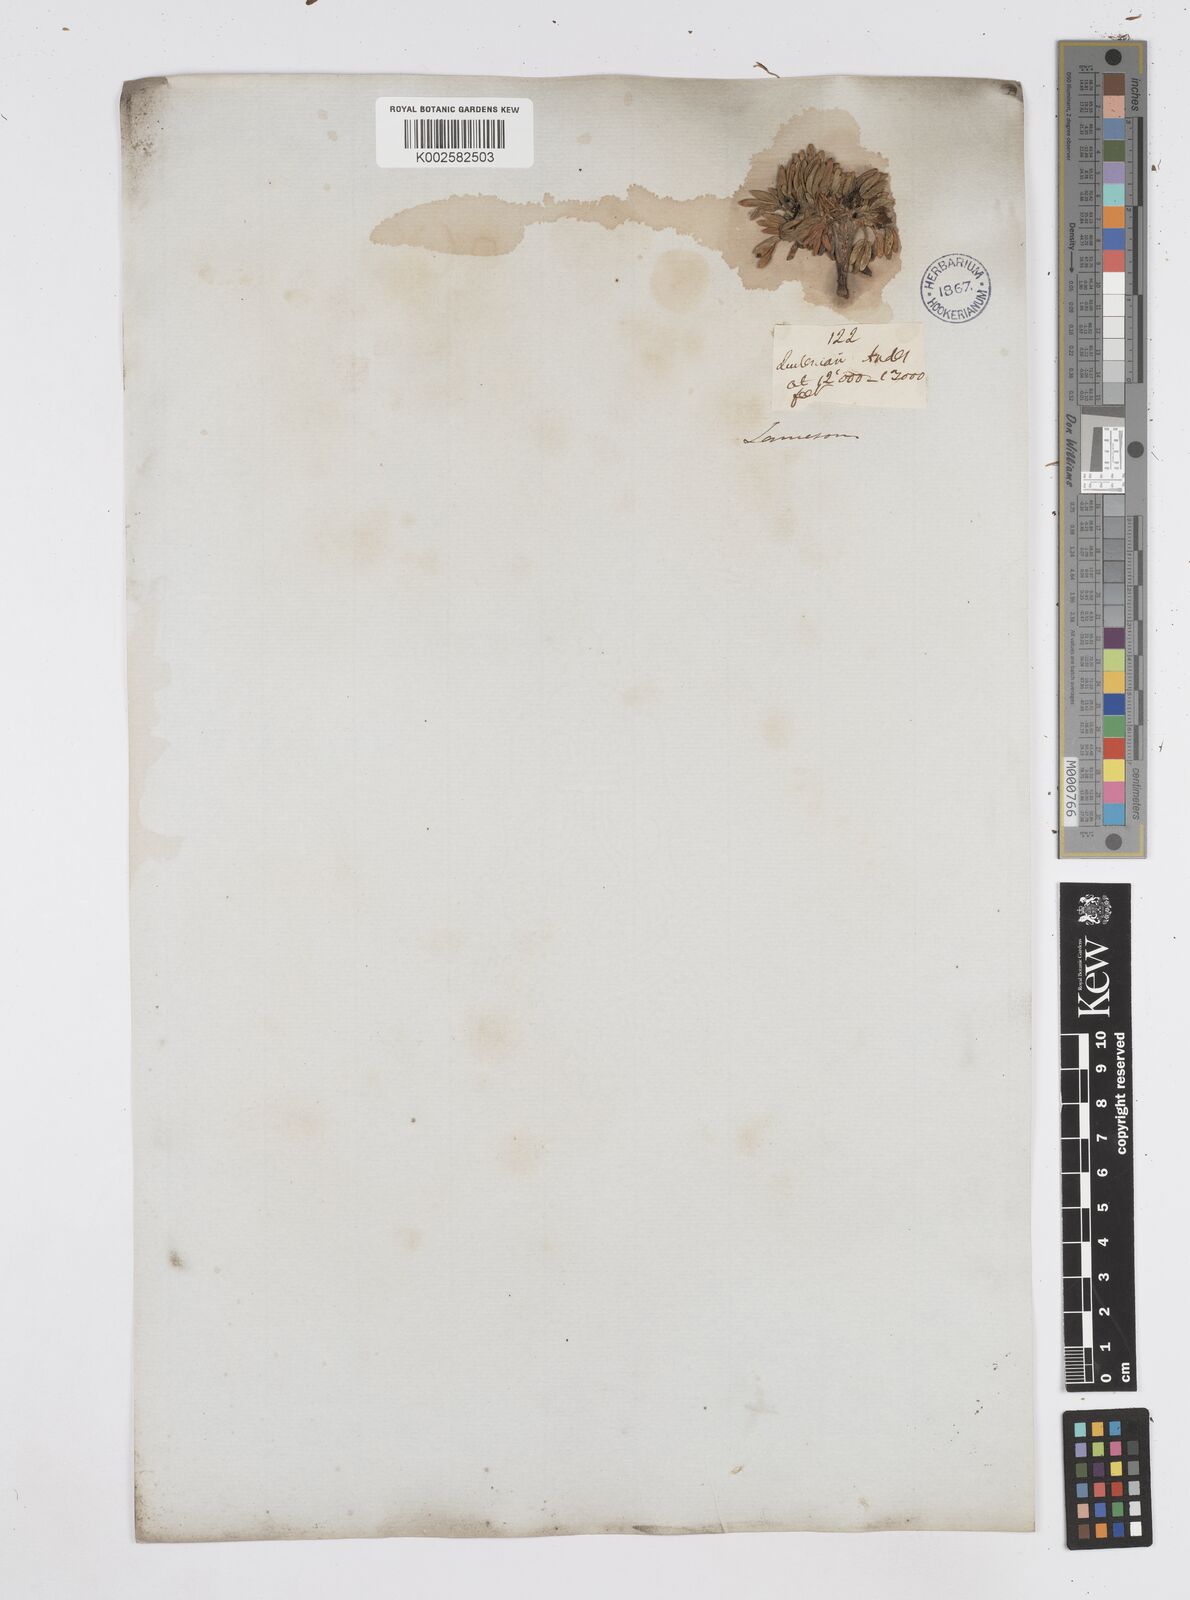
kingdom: Plantae
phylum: Tracheophyta
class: Magnoliopsida
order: Apiales
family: Apiaceae
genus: Azorella
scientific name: Azorella aretioides
